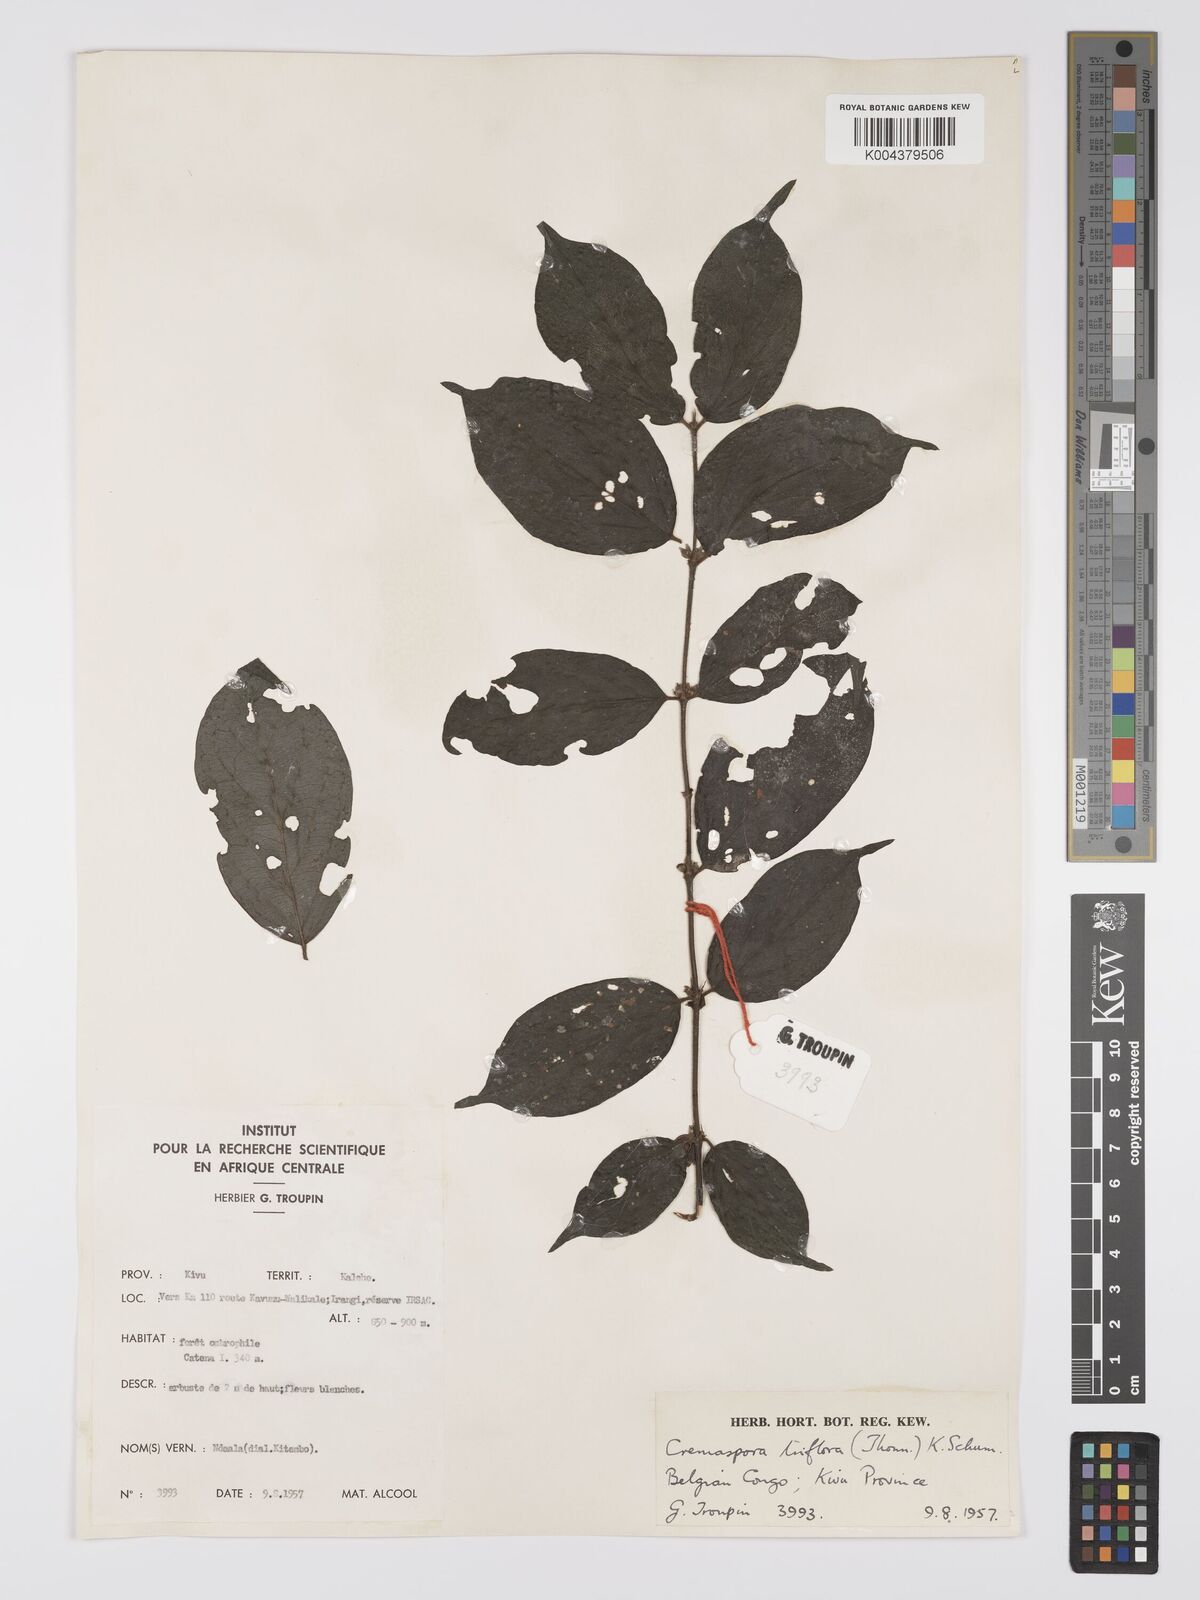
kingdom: Plantae
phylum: Tracheophyta
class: Magnoliopsida
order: Gentianales
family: Rubiaceae
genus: Cremaspora
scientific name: Cremaspora triflora
